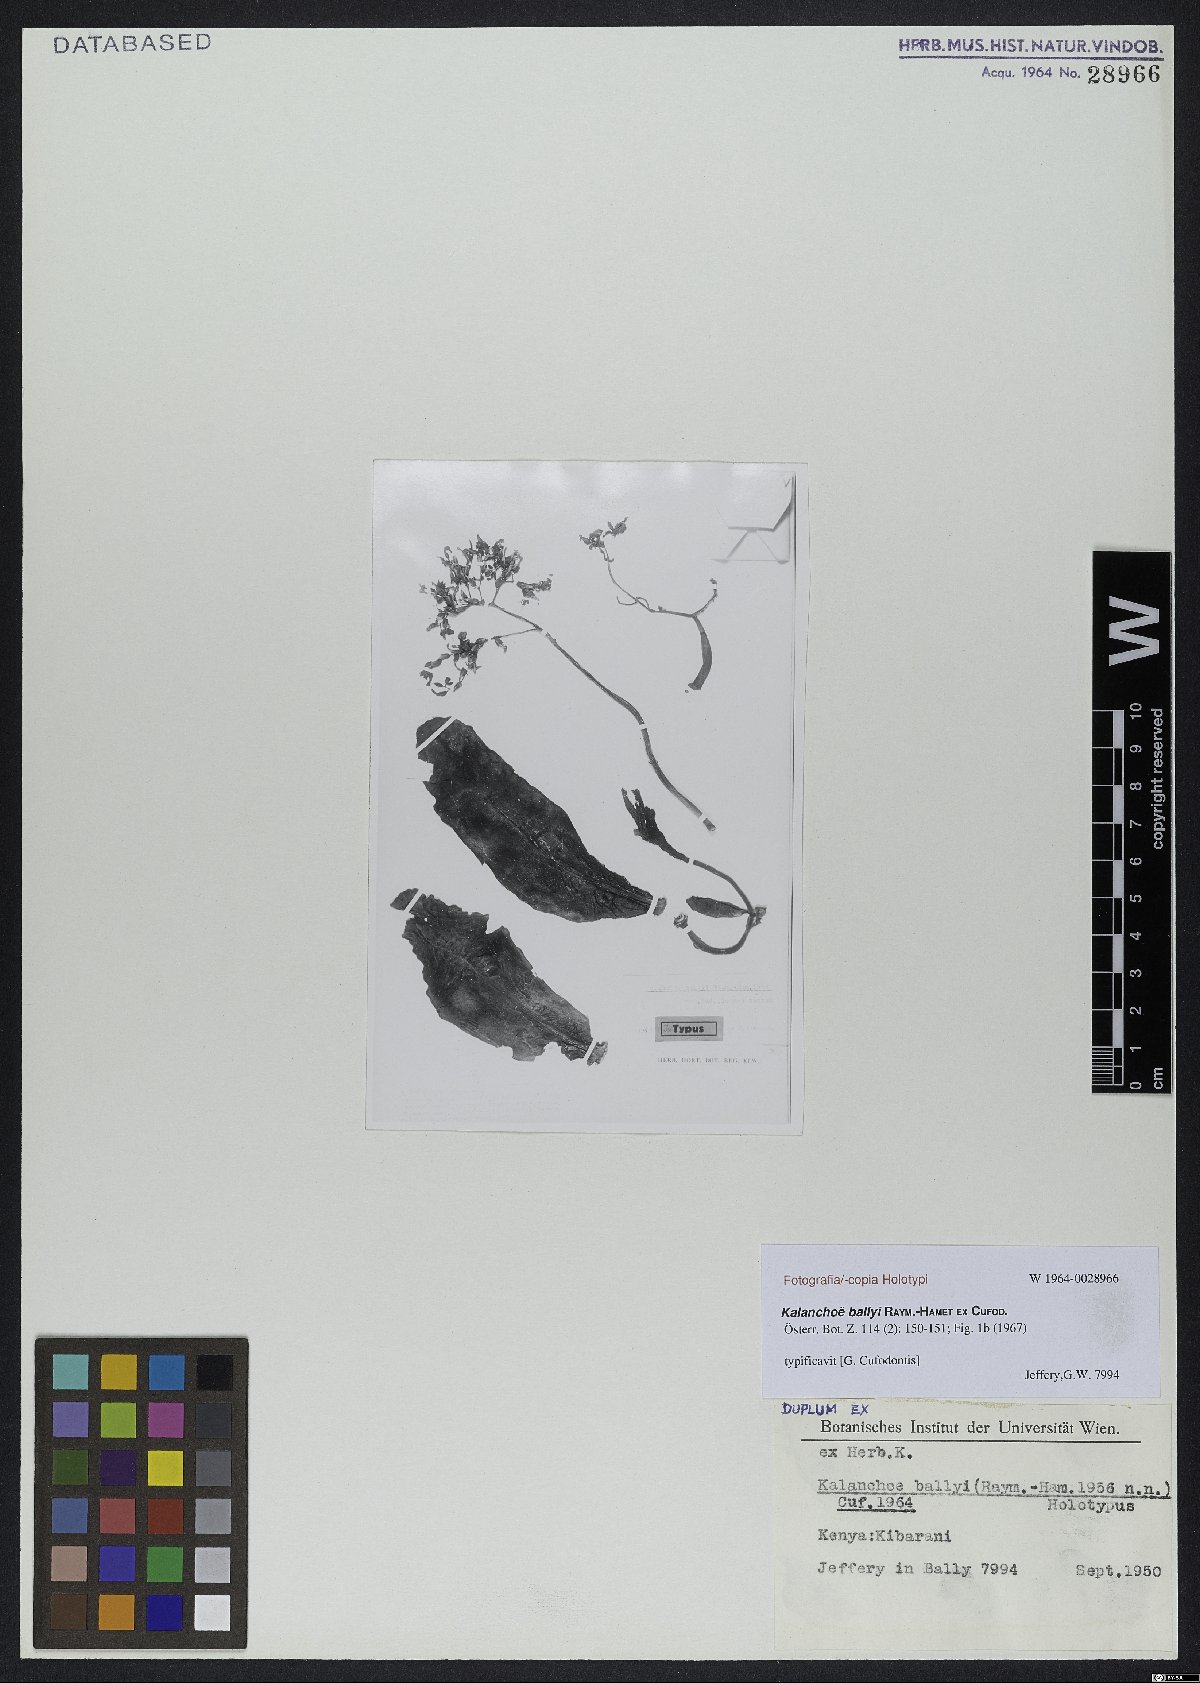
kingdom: Plantae
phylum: Tracheophyta
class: Magnoliopsida
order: Saxifragales
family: Crassulaceae
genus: Kalanchoe
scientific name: Kalanchoe ballyi
